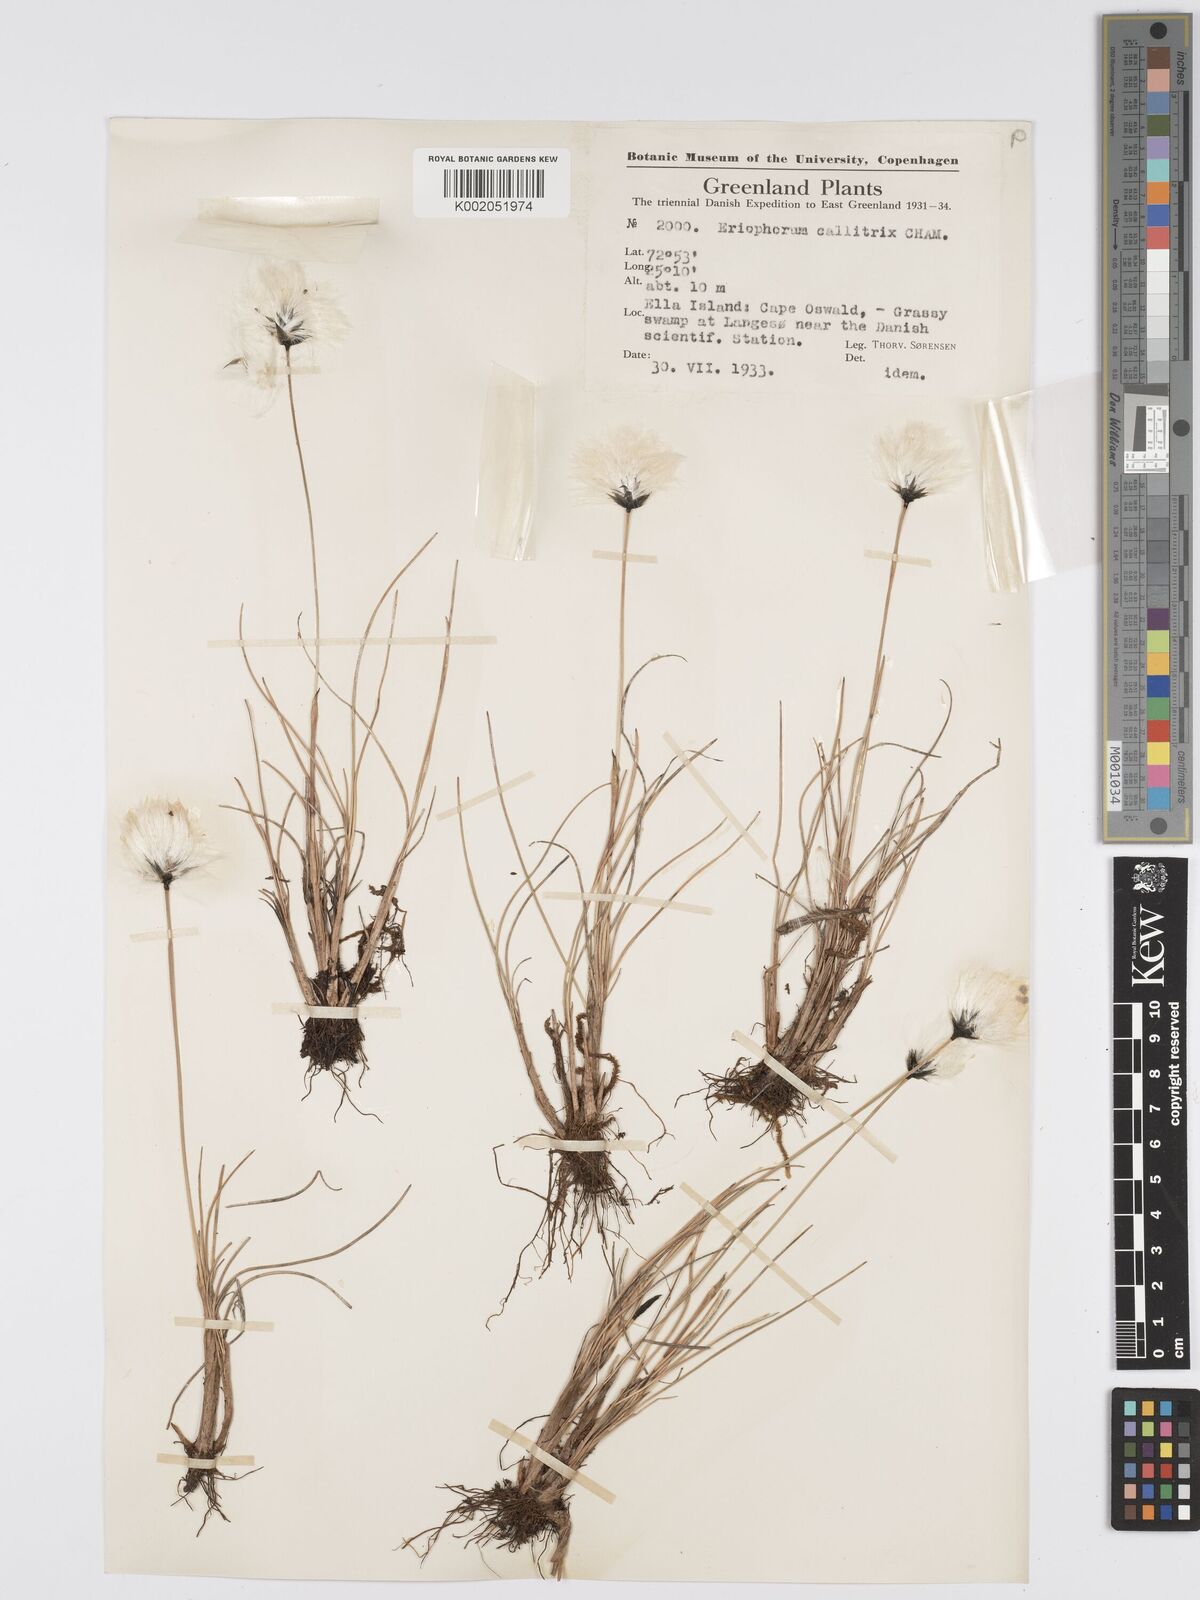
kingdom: Plantae
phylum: Tracheophyta
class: Liliopsida
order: Poales
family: Cyperaceae
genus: Eriophorum
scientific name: Eriophorum callitrix
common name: Arctic cottongrass
